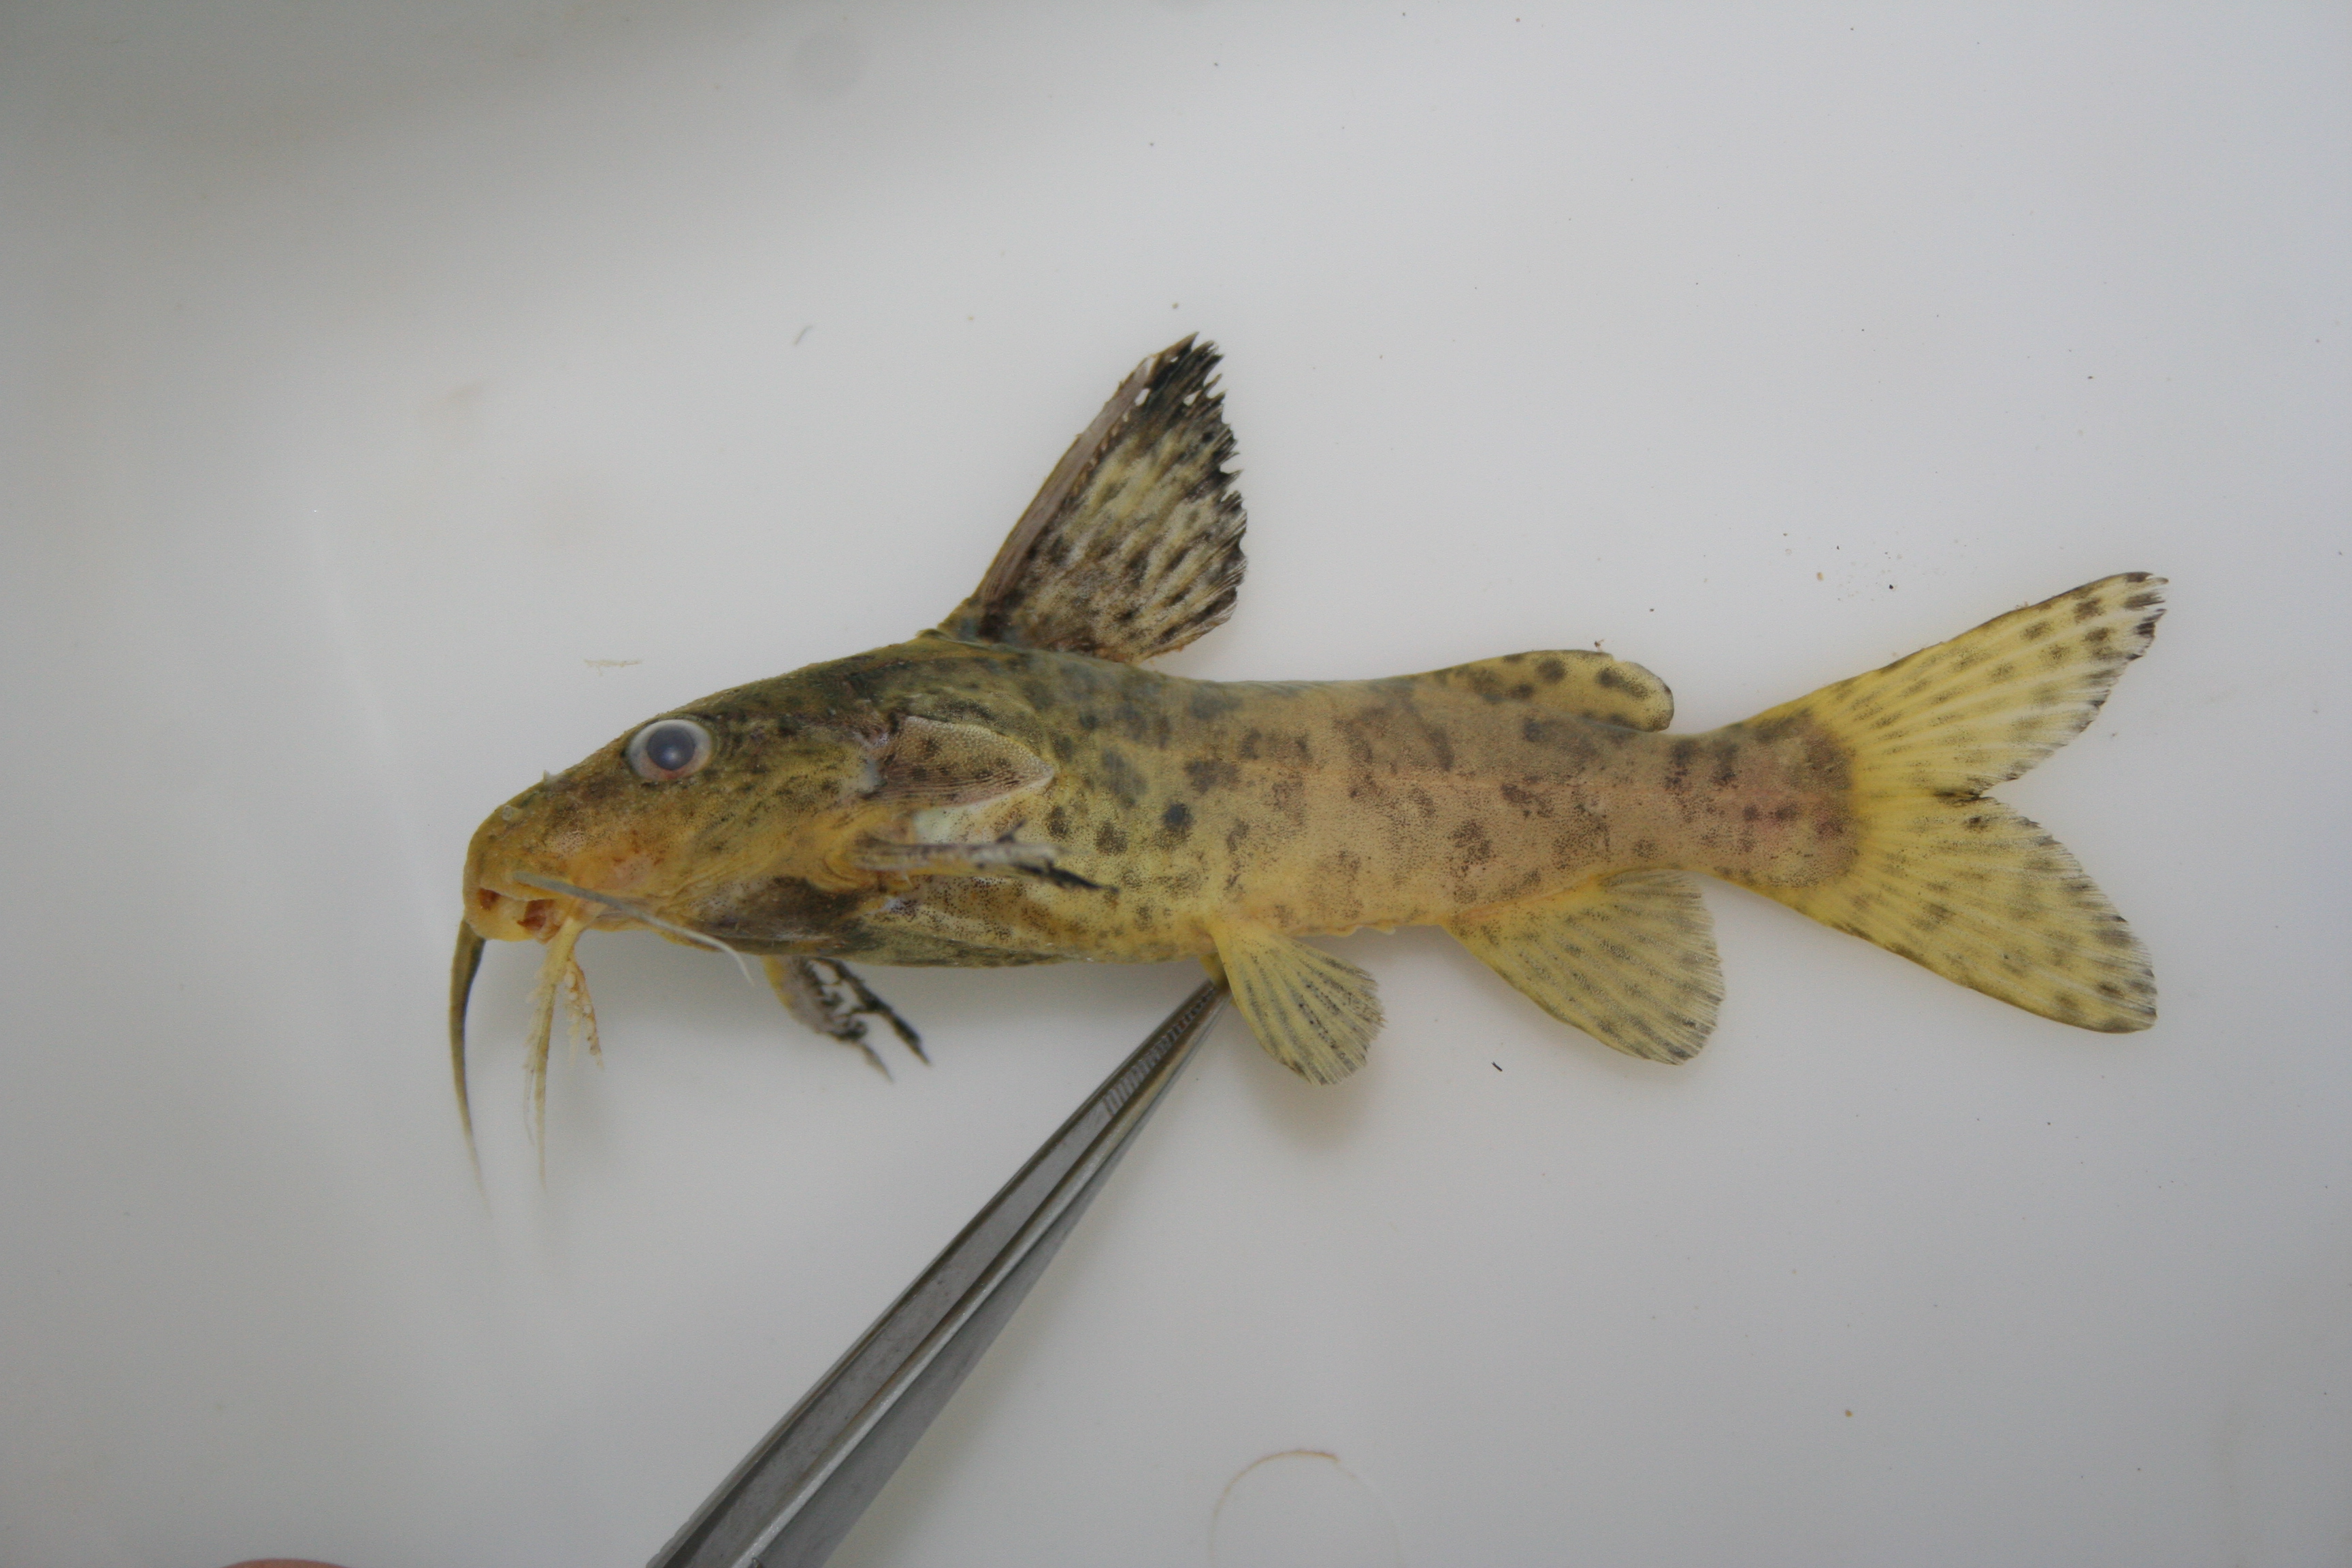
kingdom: Animalia
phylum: Chordata
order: Siluriformes
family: Mochokidae
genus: Synodontis
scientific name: Synodontis
